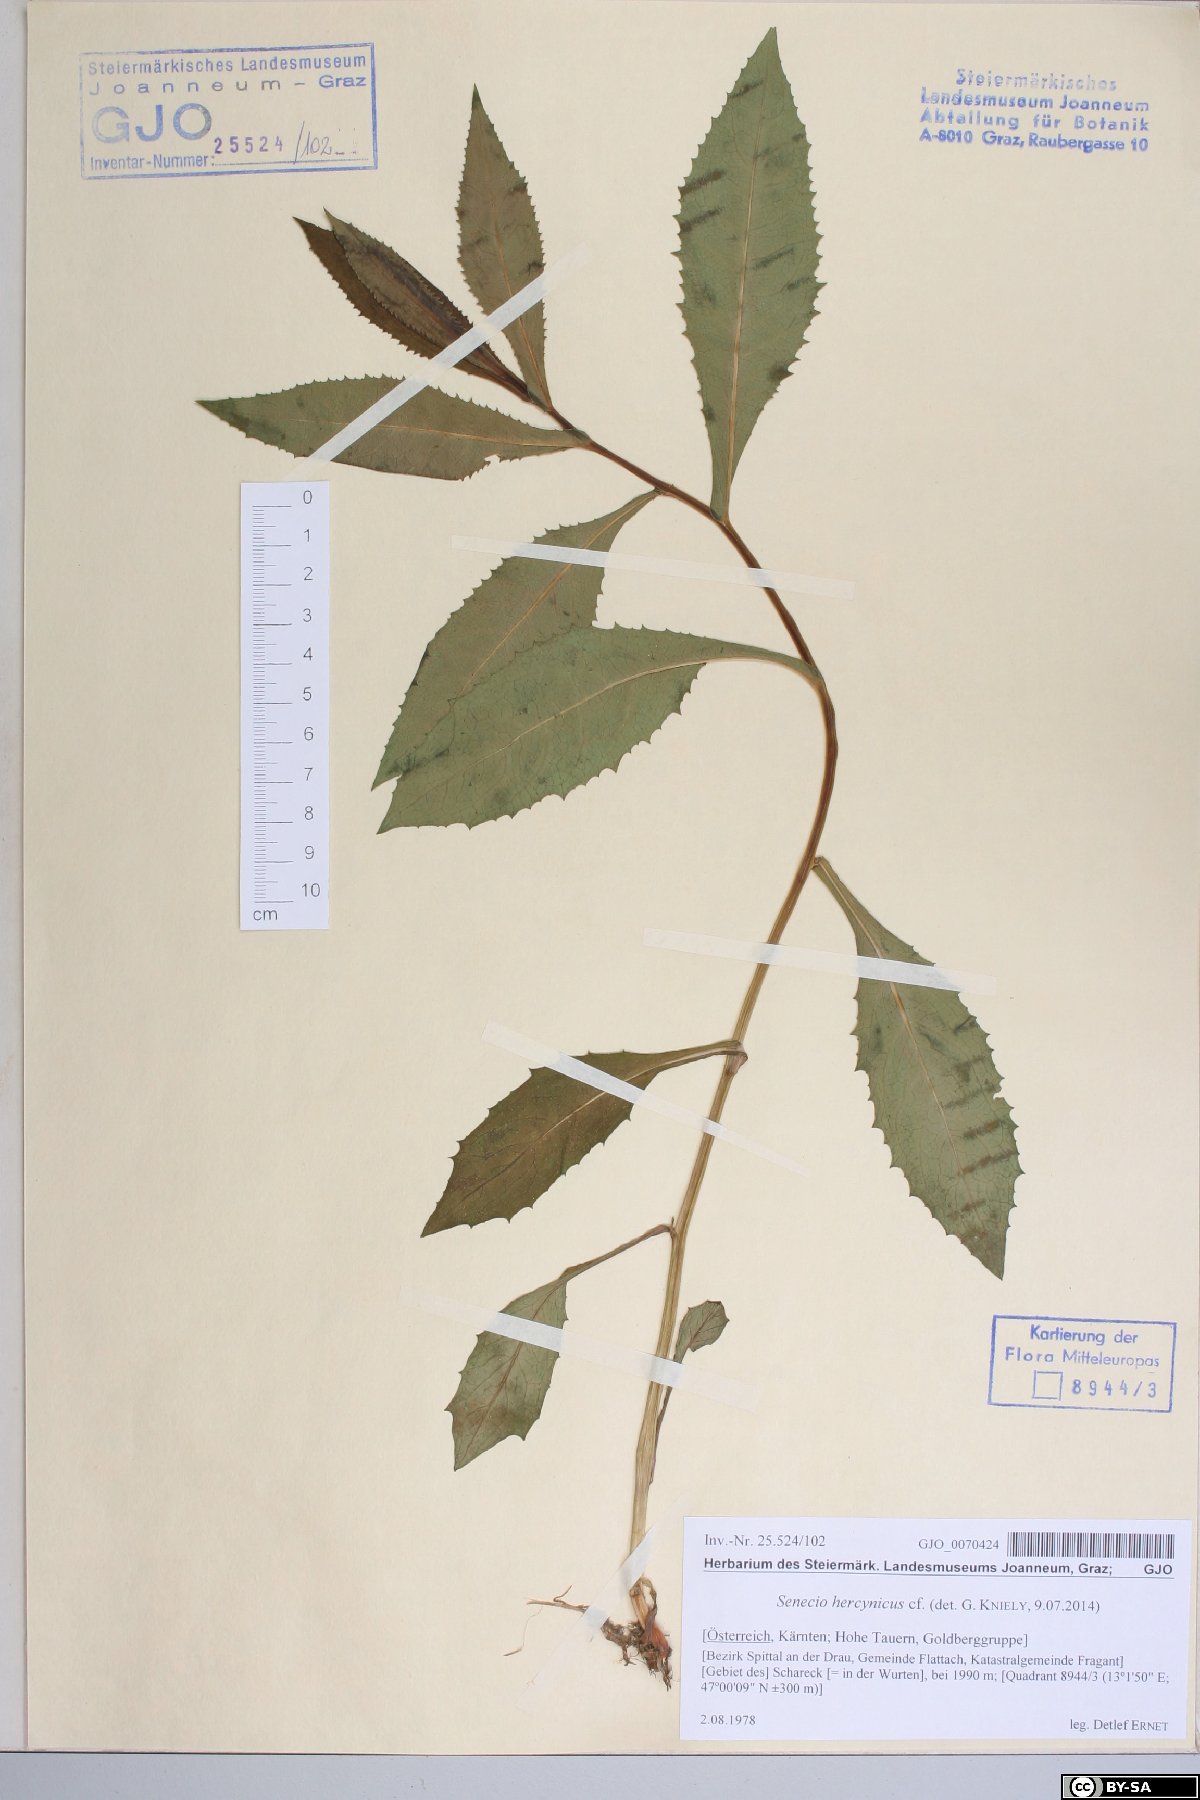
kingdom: Plantae
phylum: Tracheophyta
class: Magnoliopsida
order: Asterales
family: Asteraceae
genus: Senecio
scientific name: Senecio hercynicus
